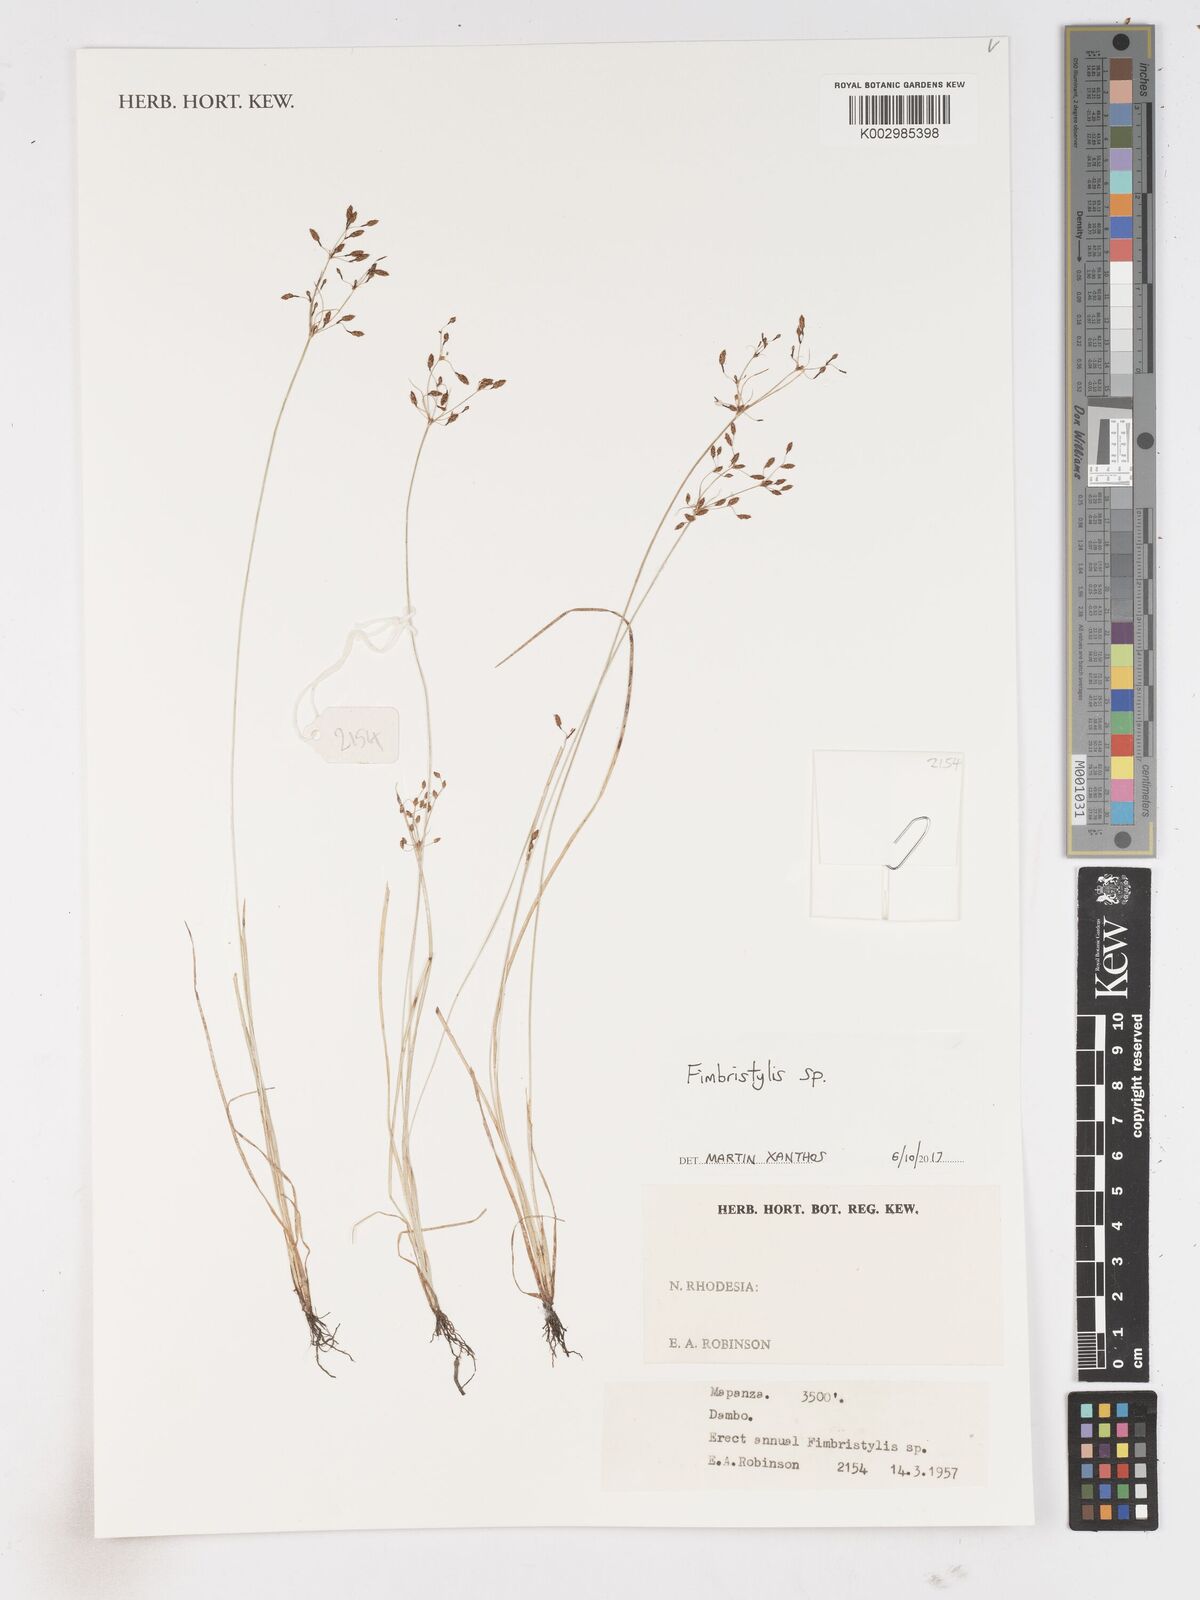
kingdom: Plantae
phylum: Tracheophyta
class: Liliopsida
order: Poales
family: Cyperaceae
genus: Fimbristylis
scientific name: Fimbristylis
